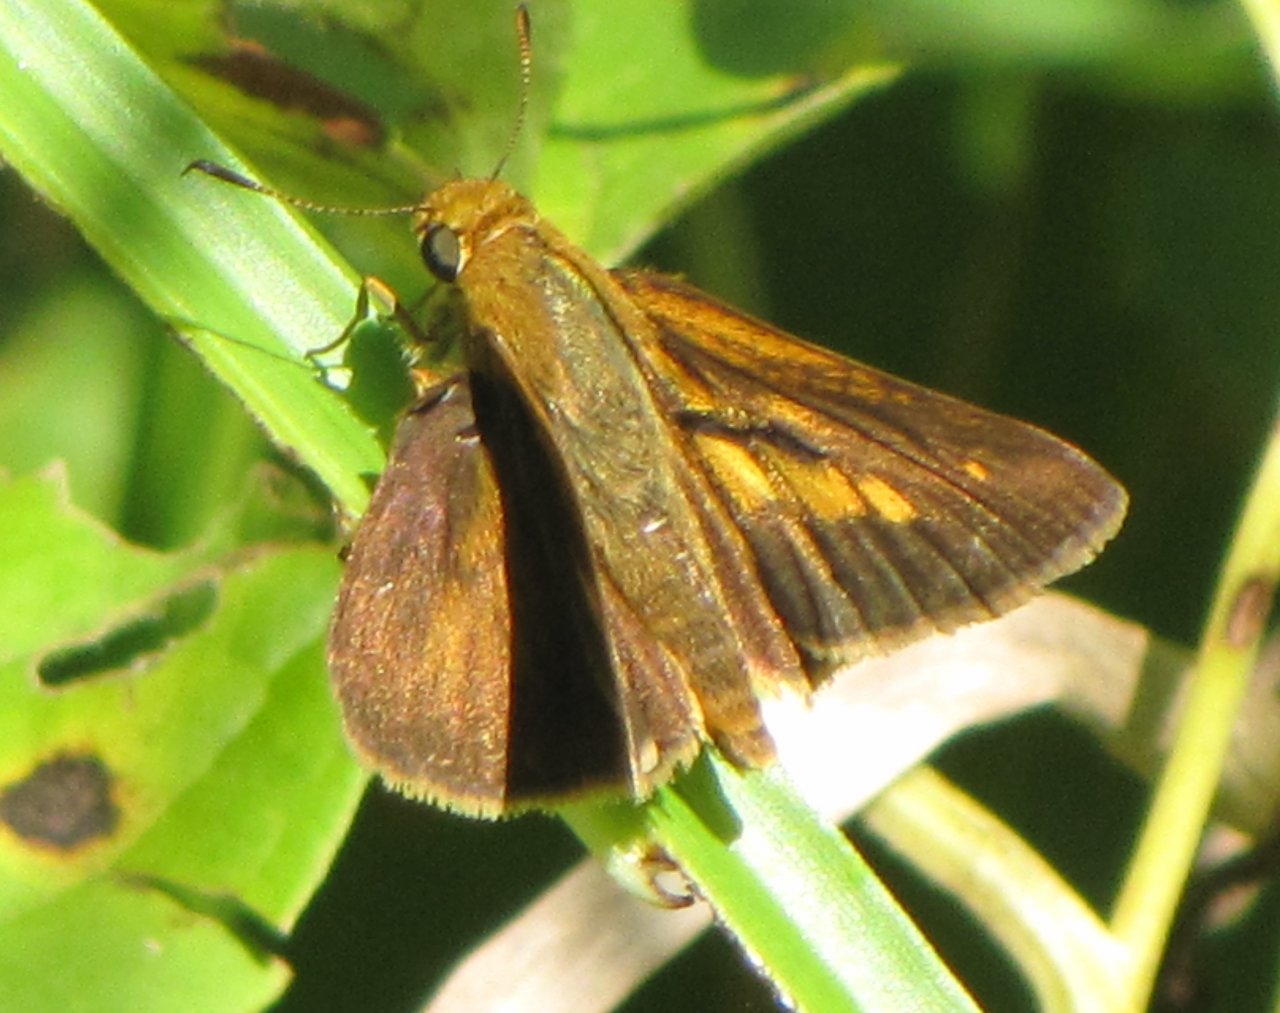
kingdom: Animalia
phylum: Arthropoda
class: Insecta
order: Lepidoptera
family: Hesperiidae
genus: Euphyes
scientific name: Euphyes dion
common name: Dion Skipper
